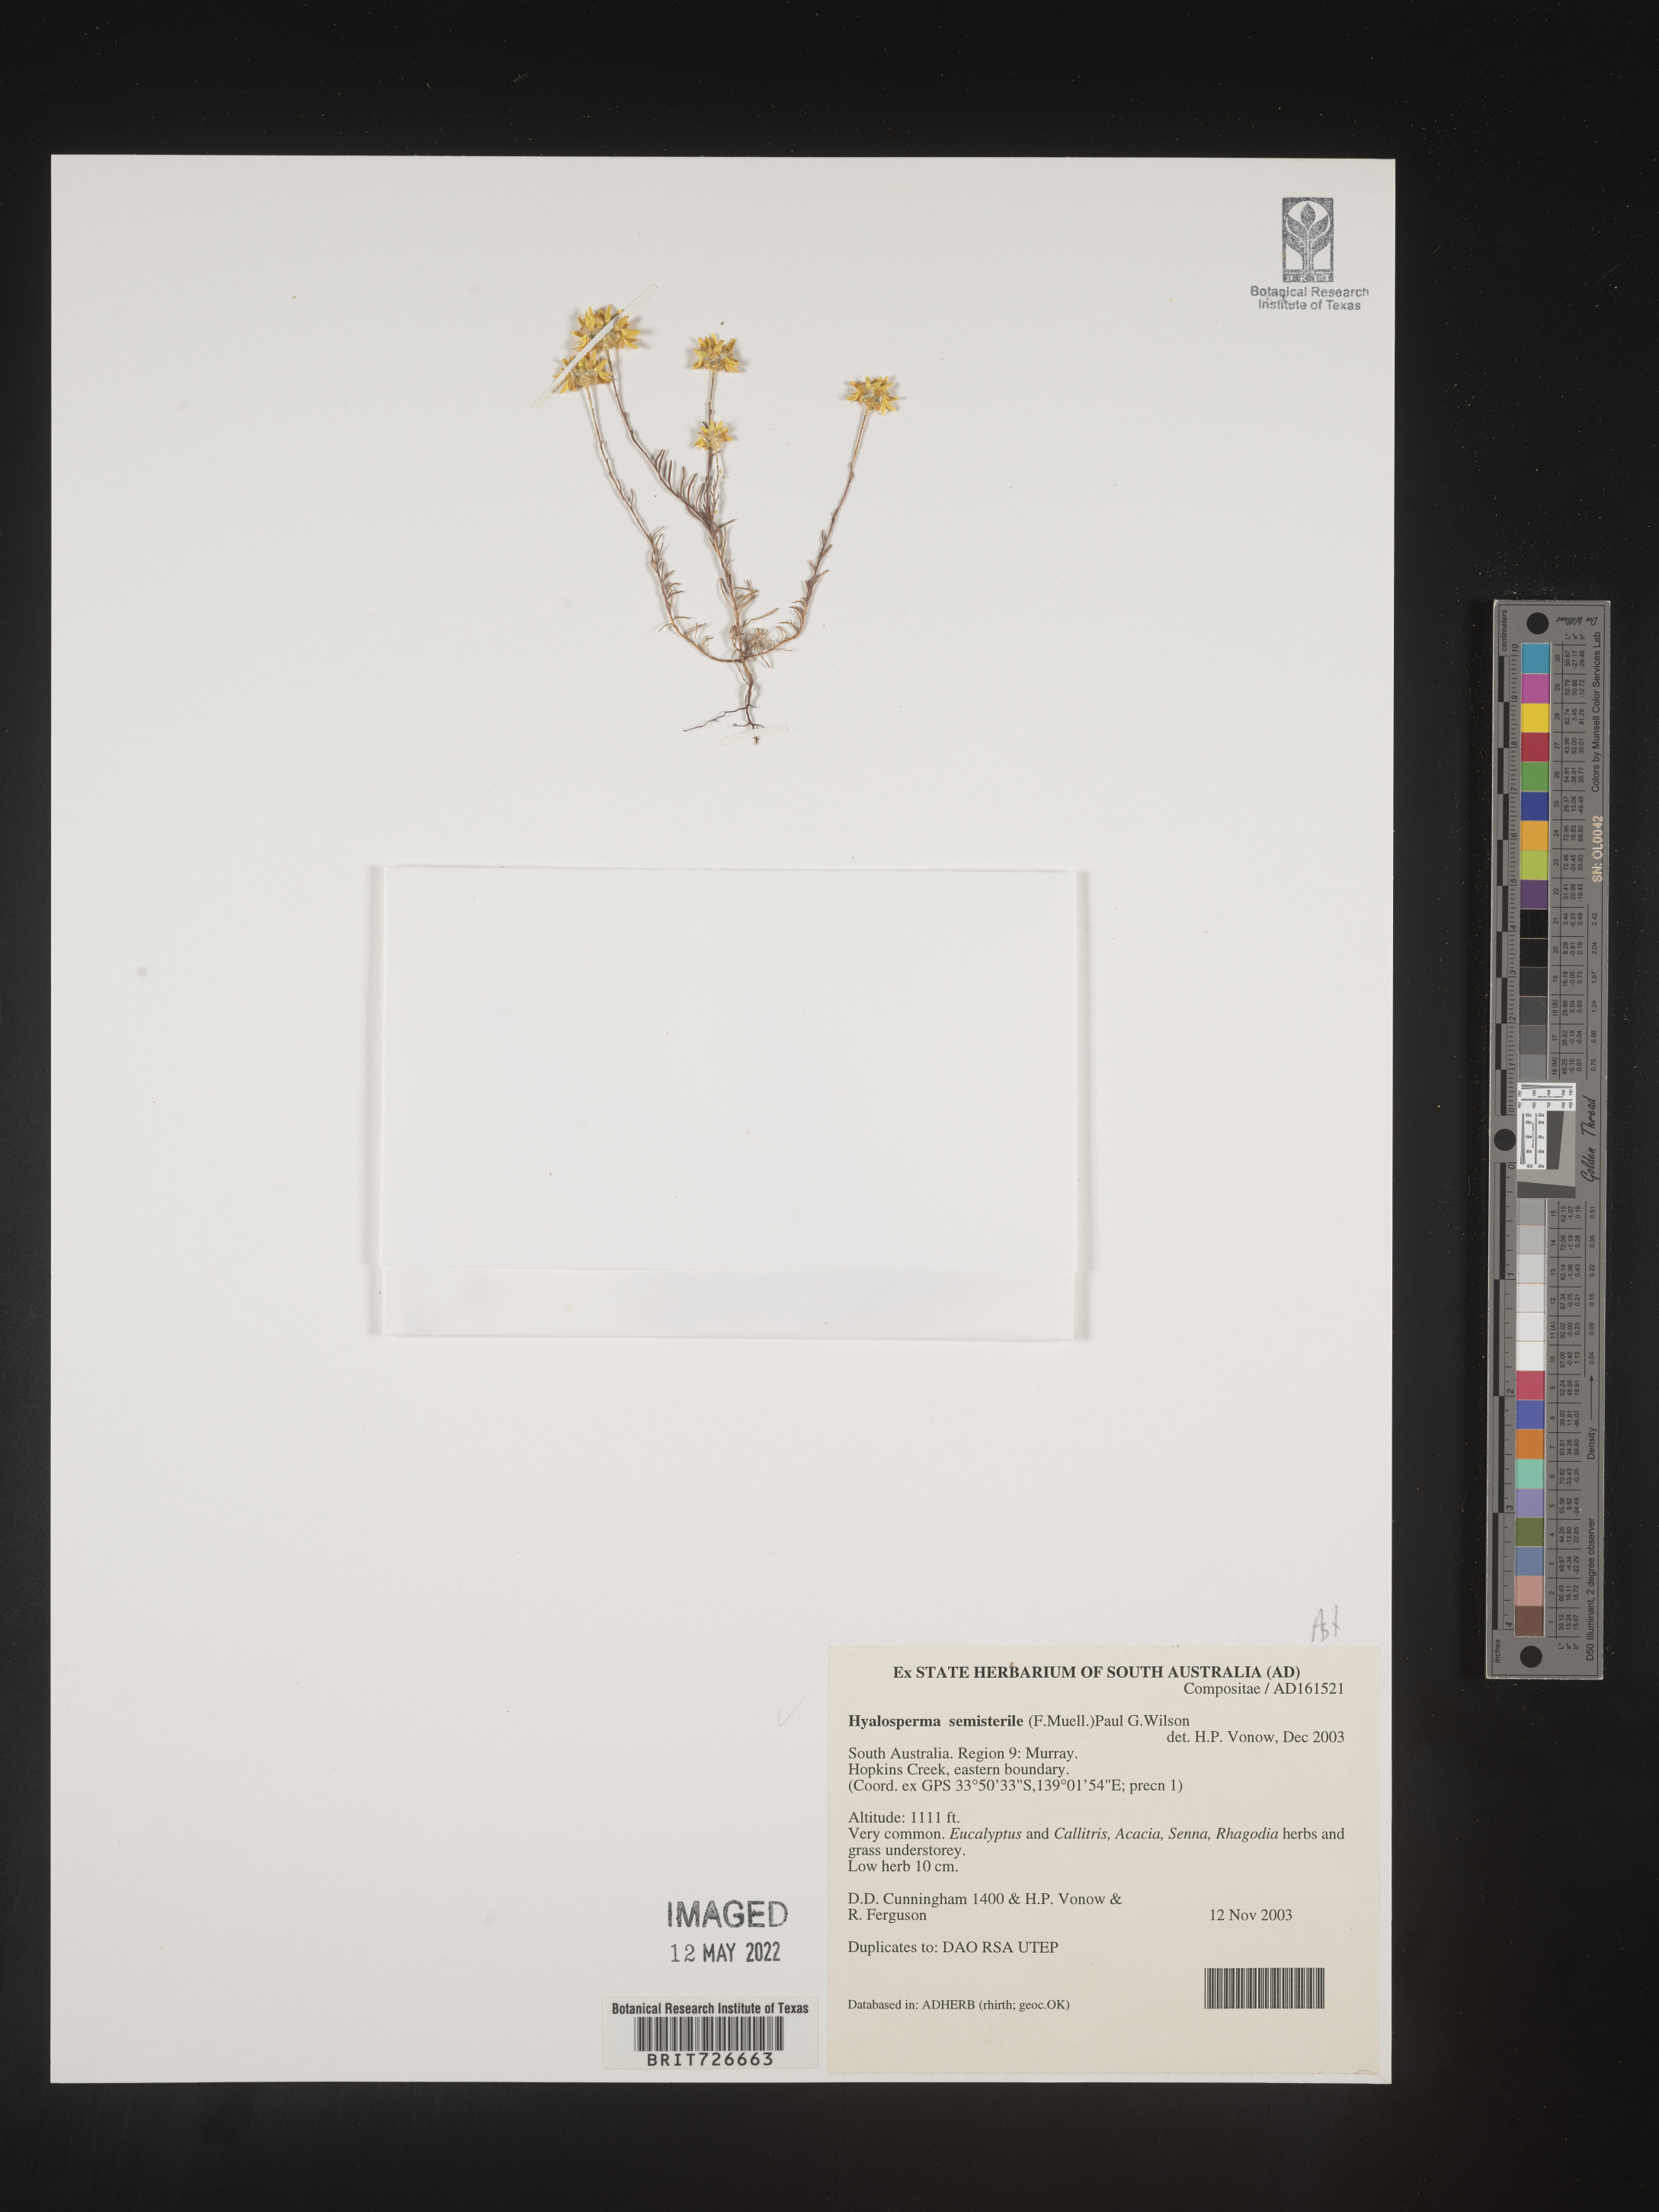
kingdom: Plantae
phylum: Tracheophyta
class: Magnoliopsida
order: Asterales
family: Asteraceae
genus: Hyalosperma
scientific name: Hyalosperma
